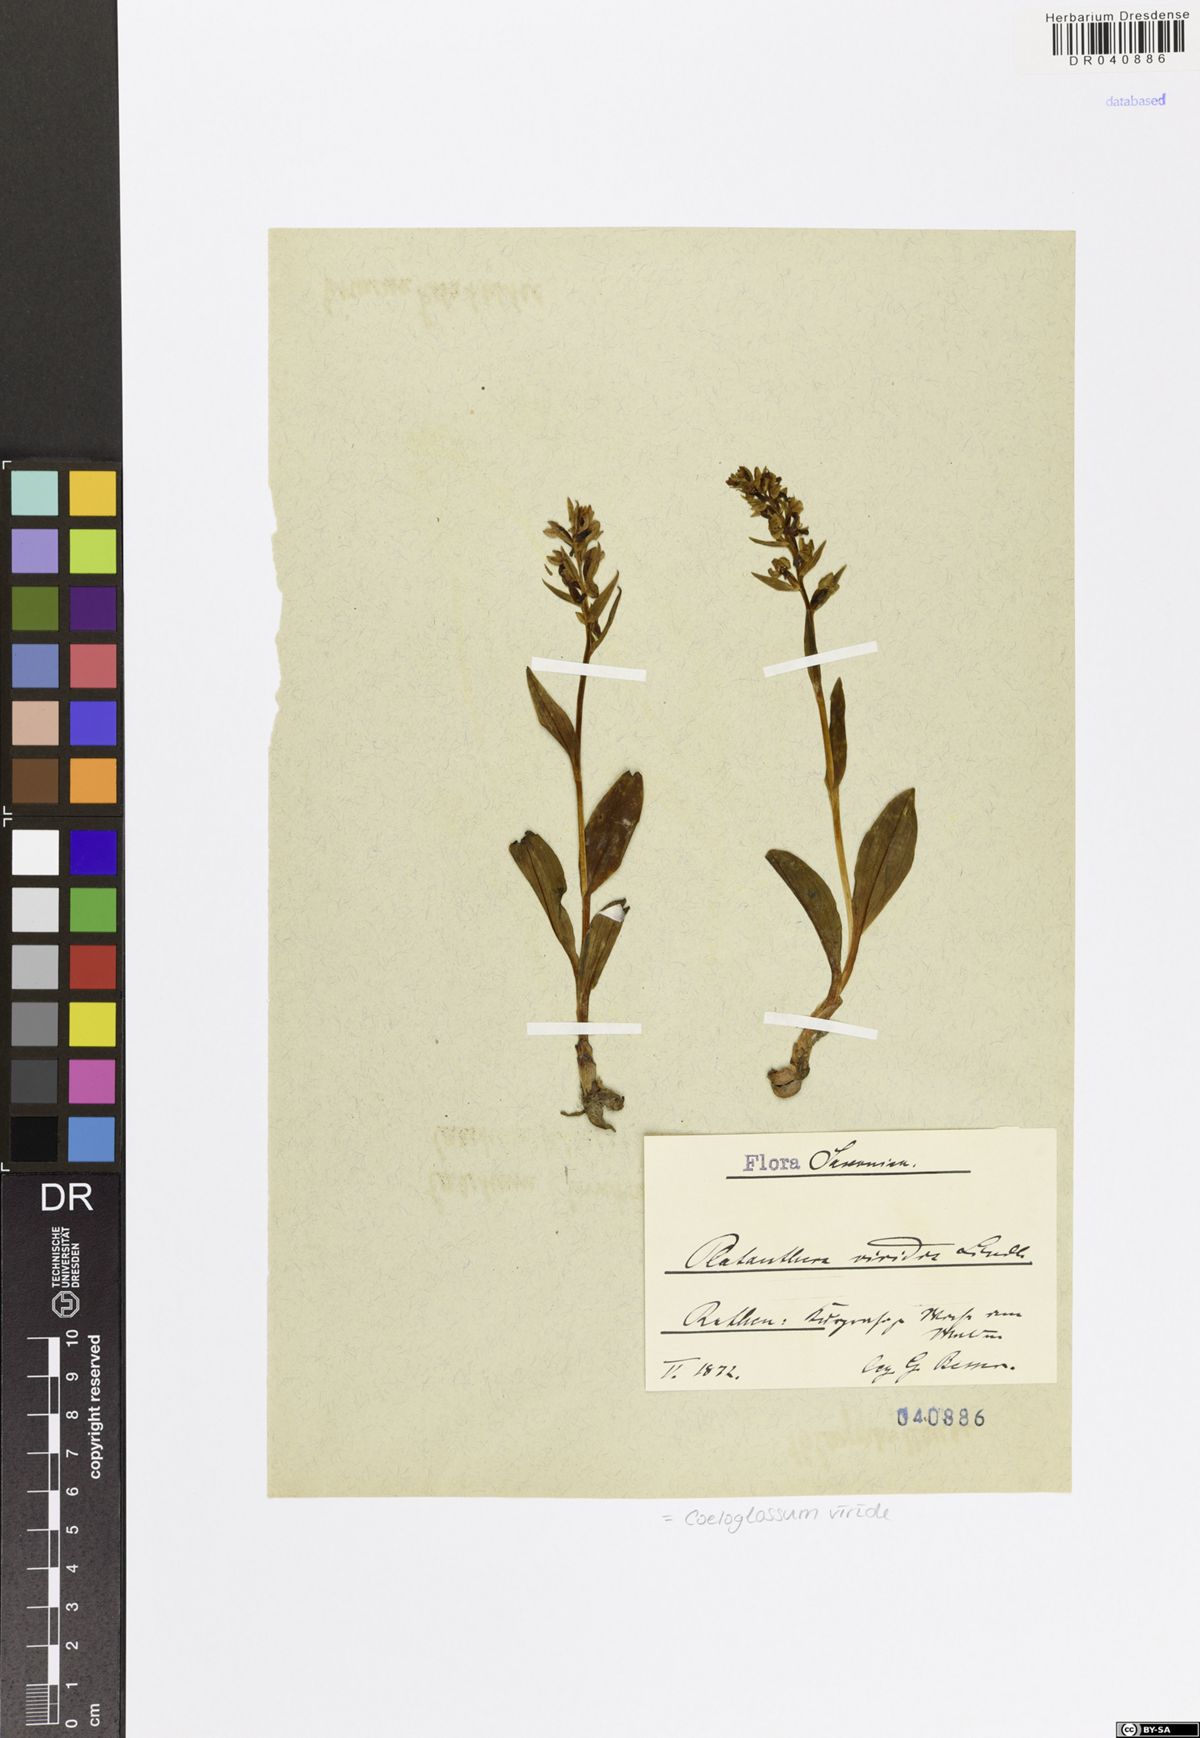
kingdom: Plantae
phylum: Tracheophyta
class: Liliopsida
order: Asparagales
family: Orchidaceae
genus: Dactylorhiza
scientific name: Dactylorhiza viridis
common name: Longbract frog orchid
